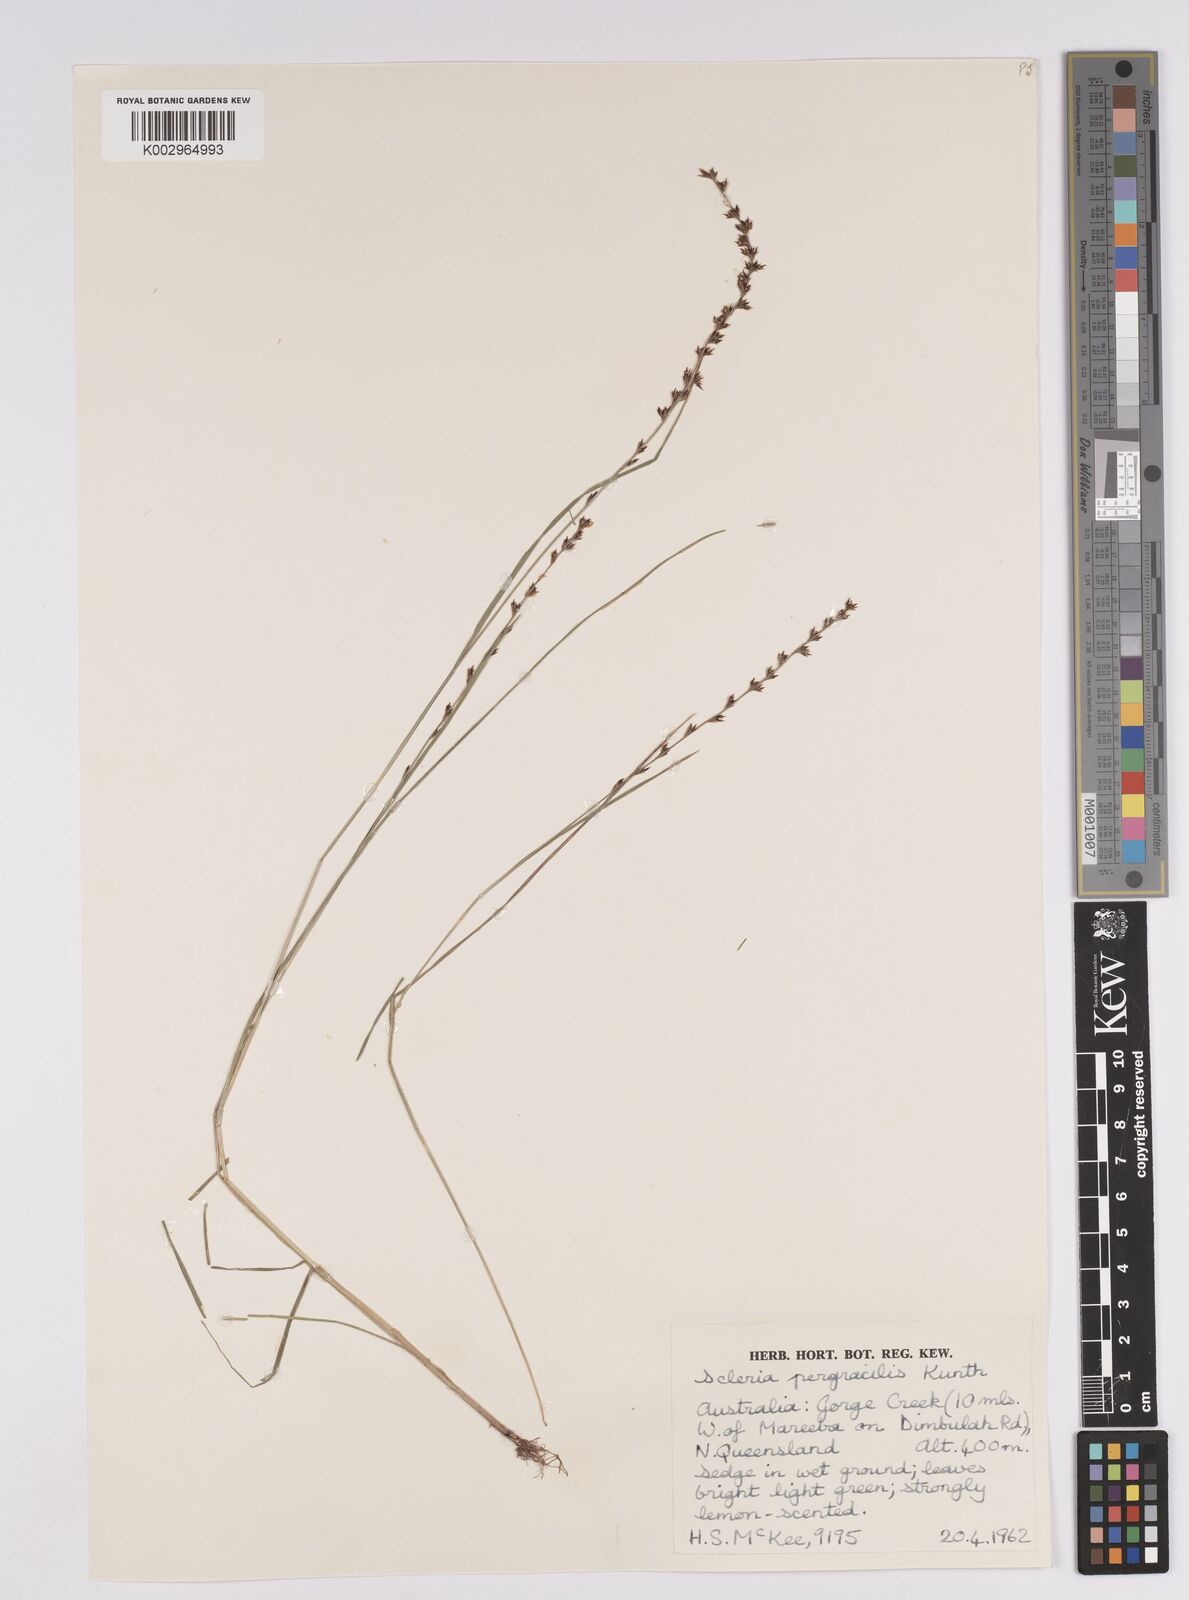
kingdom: Plantae
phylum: Tracheophyta
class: Liliopsida
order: Poales
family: Cyperaceae
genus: Scleria
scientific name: Scleria pergracilis
